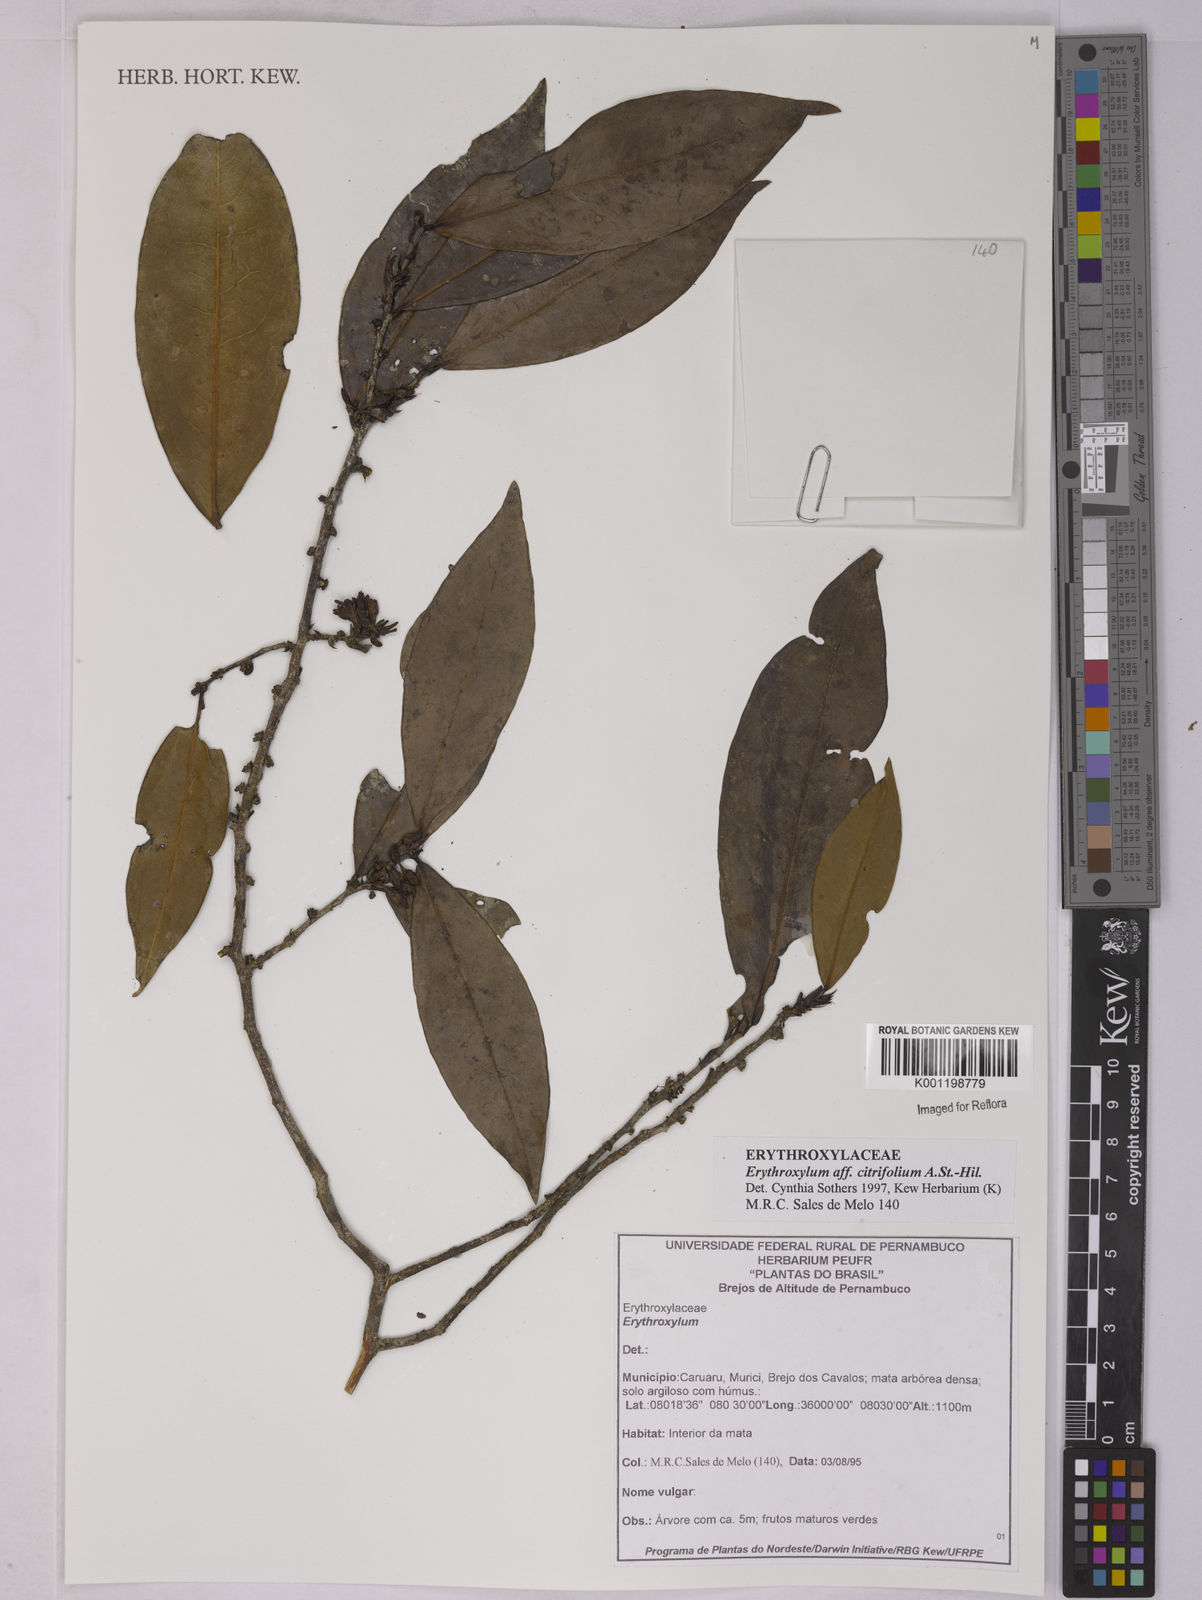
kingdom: Plantae
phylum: Tracheophyta
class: Magnoliopsida
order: Malpighiales
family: Erythroxylaceae
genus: Erythroxylum
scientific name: Erythroxylum citrifolium
